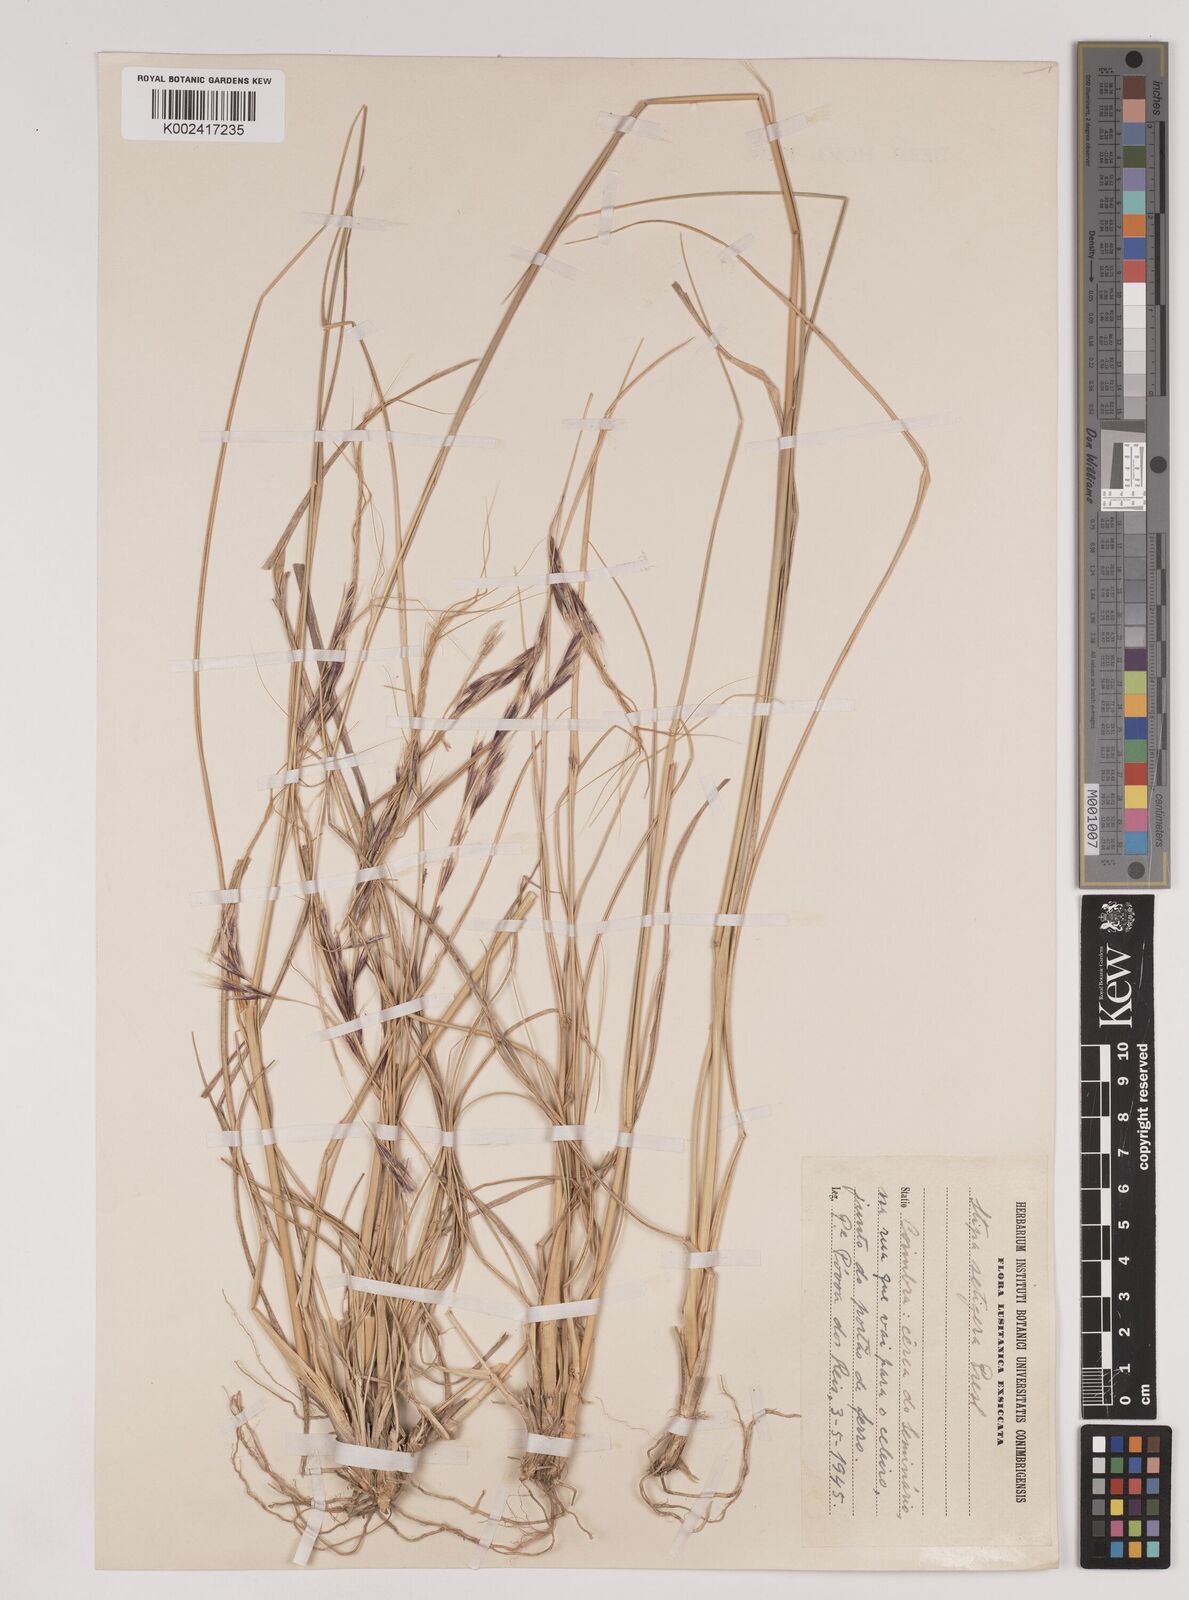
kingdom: Plantae
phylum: Tracheophyta
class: Liliopsida
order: Poales
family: Poaceae
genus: Nassella
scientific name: Nassella neesiana
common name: American needle-grass
